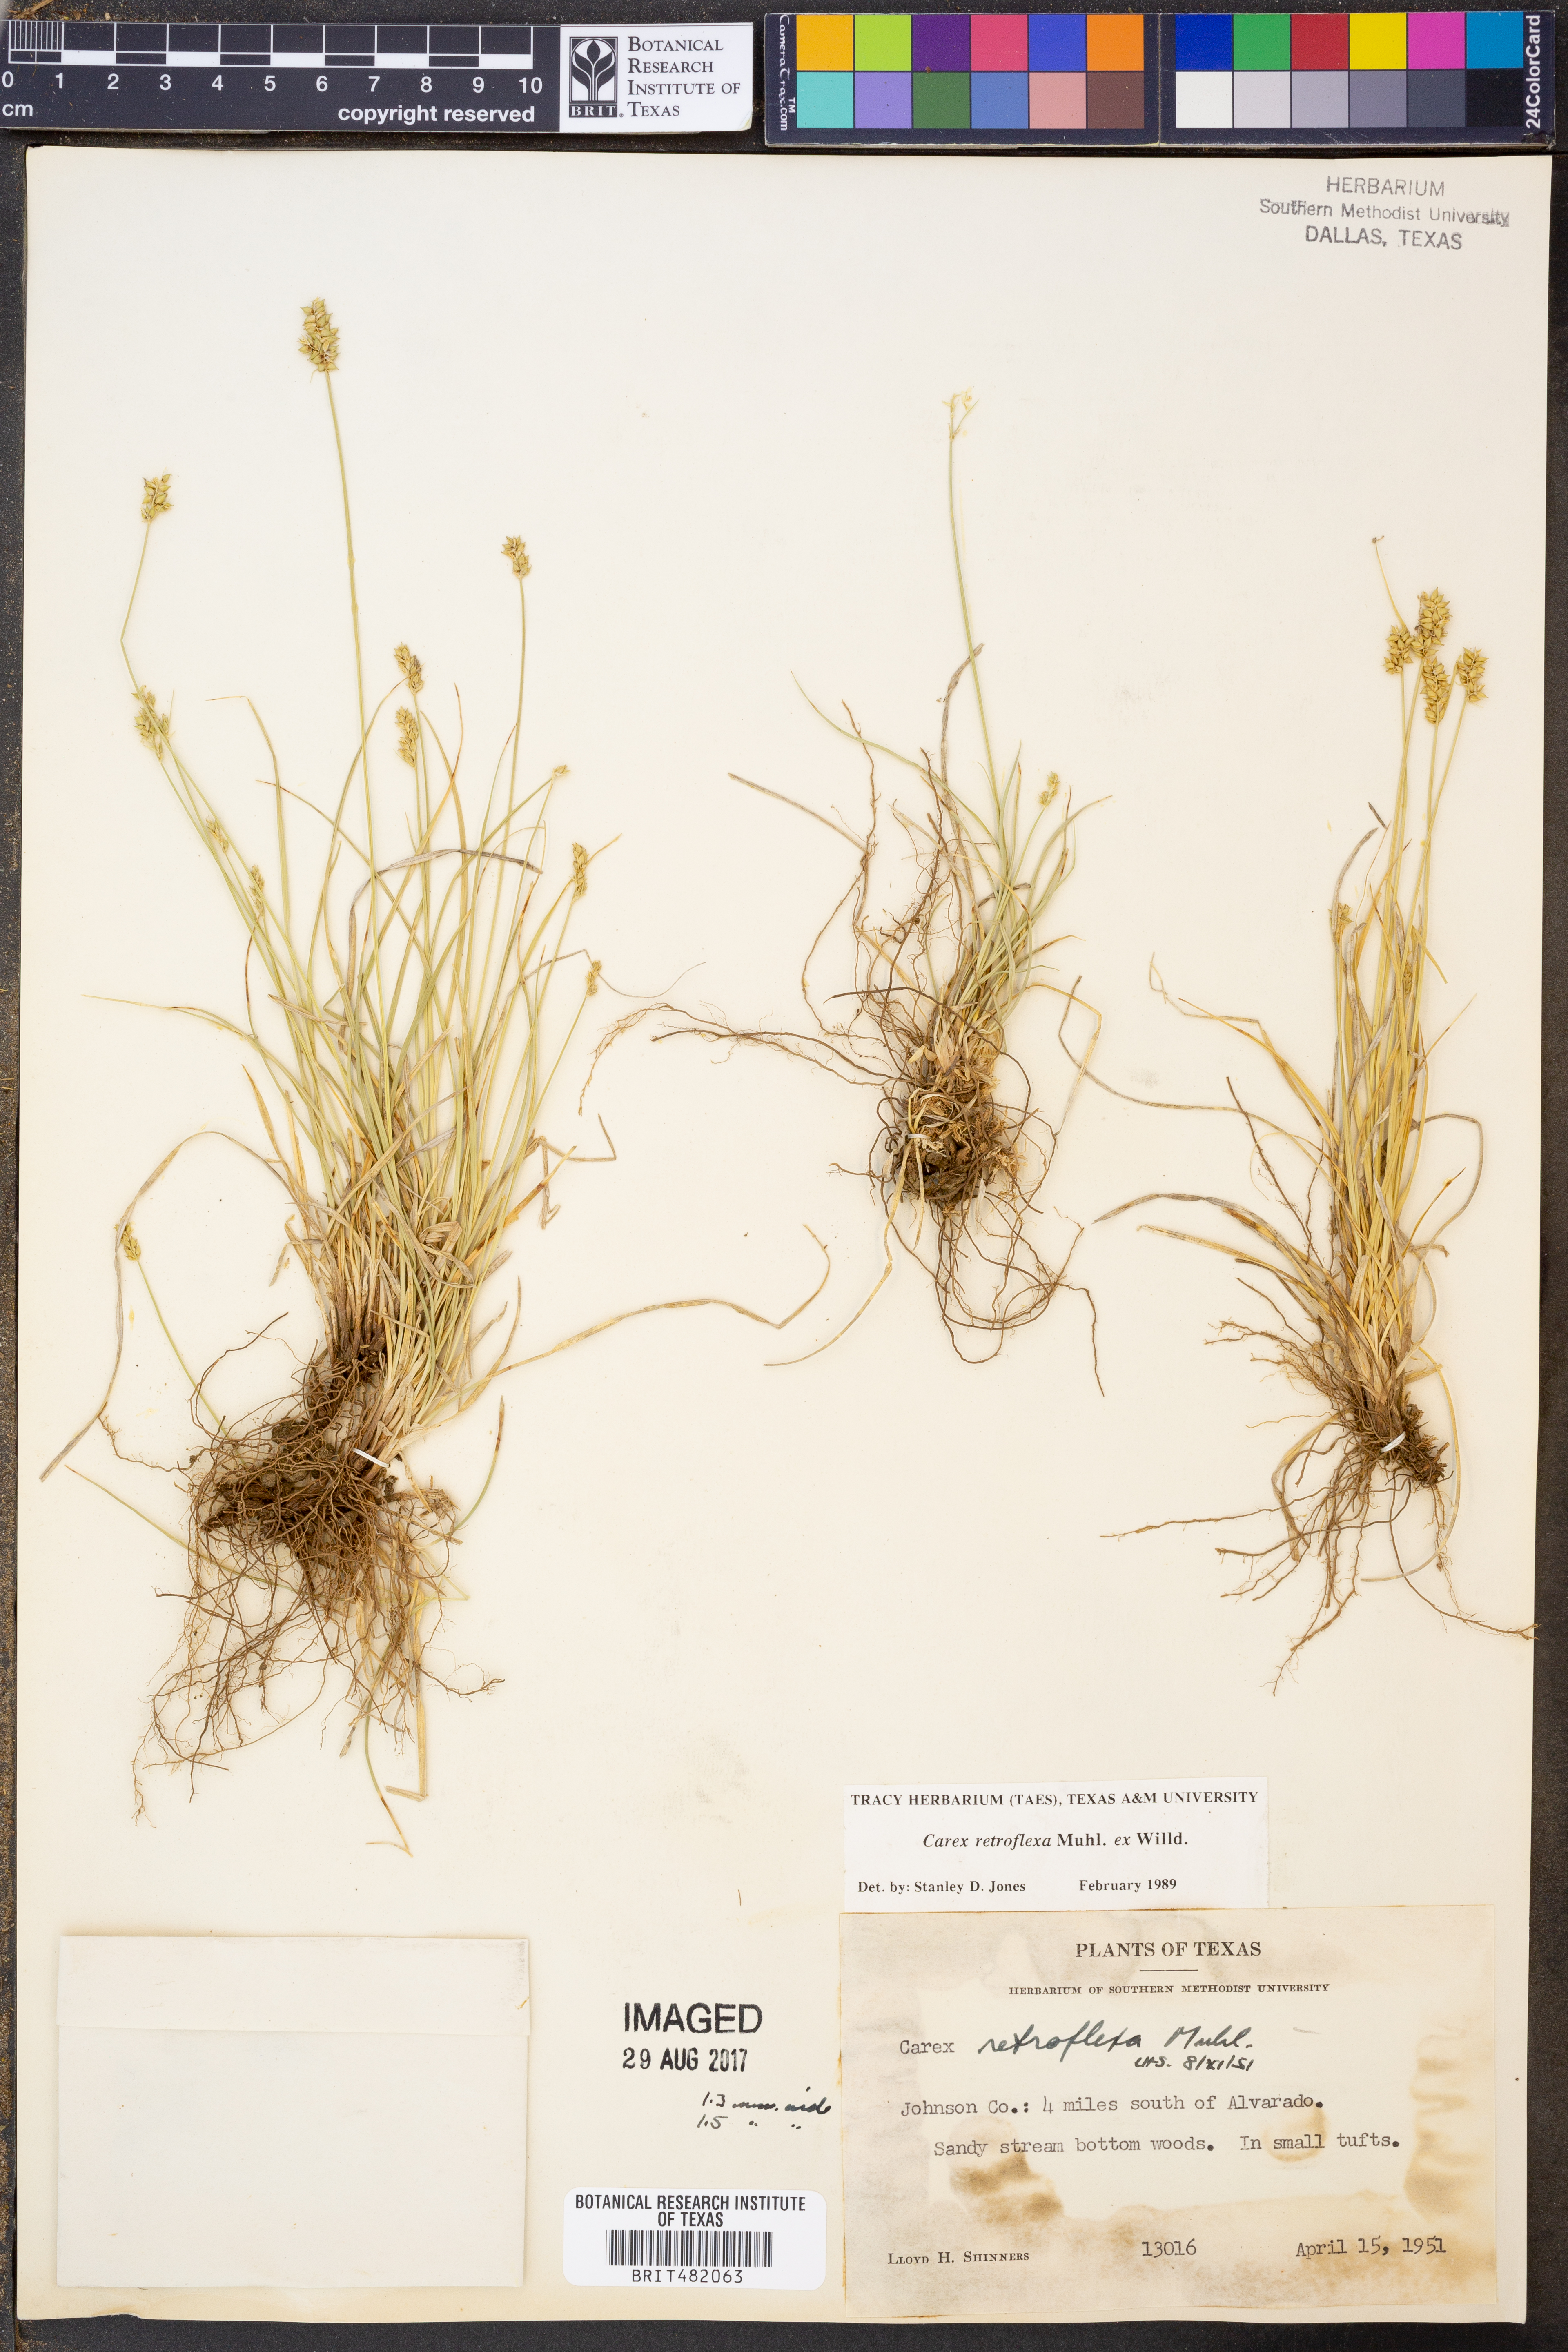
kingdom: Plantae
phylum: Tracheophyta
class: Liliopsida
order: Poales
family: Cyperaceae
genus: Carex
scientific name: Carex retroflexa
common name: Reflexed sedge
